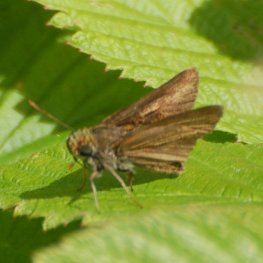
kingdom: Animalia
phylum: Arthropoda
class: Insecta
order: Lepidoptera
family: Hesperiidae
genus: Euphyes
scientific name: Euphyes vestris
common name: Dun Skipper
